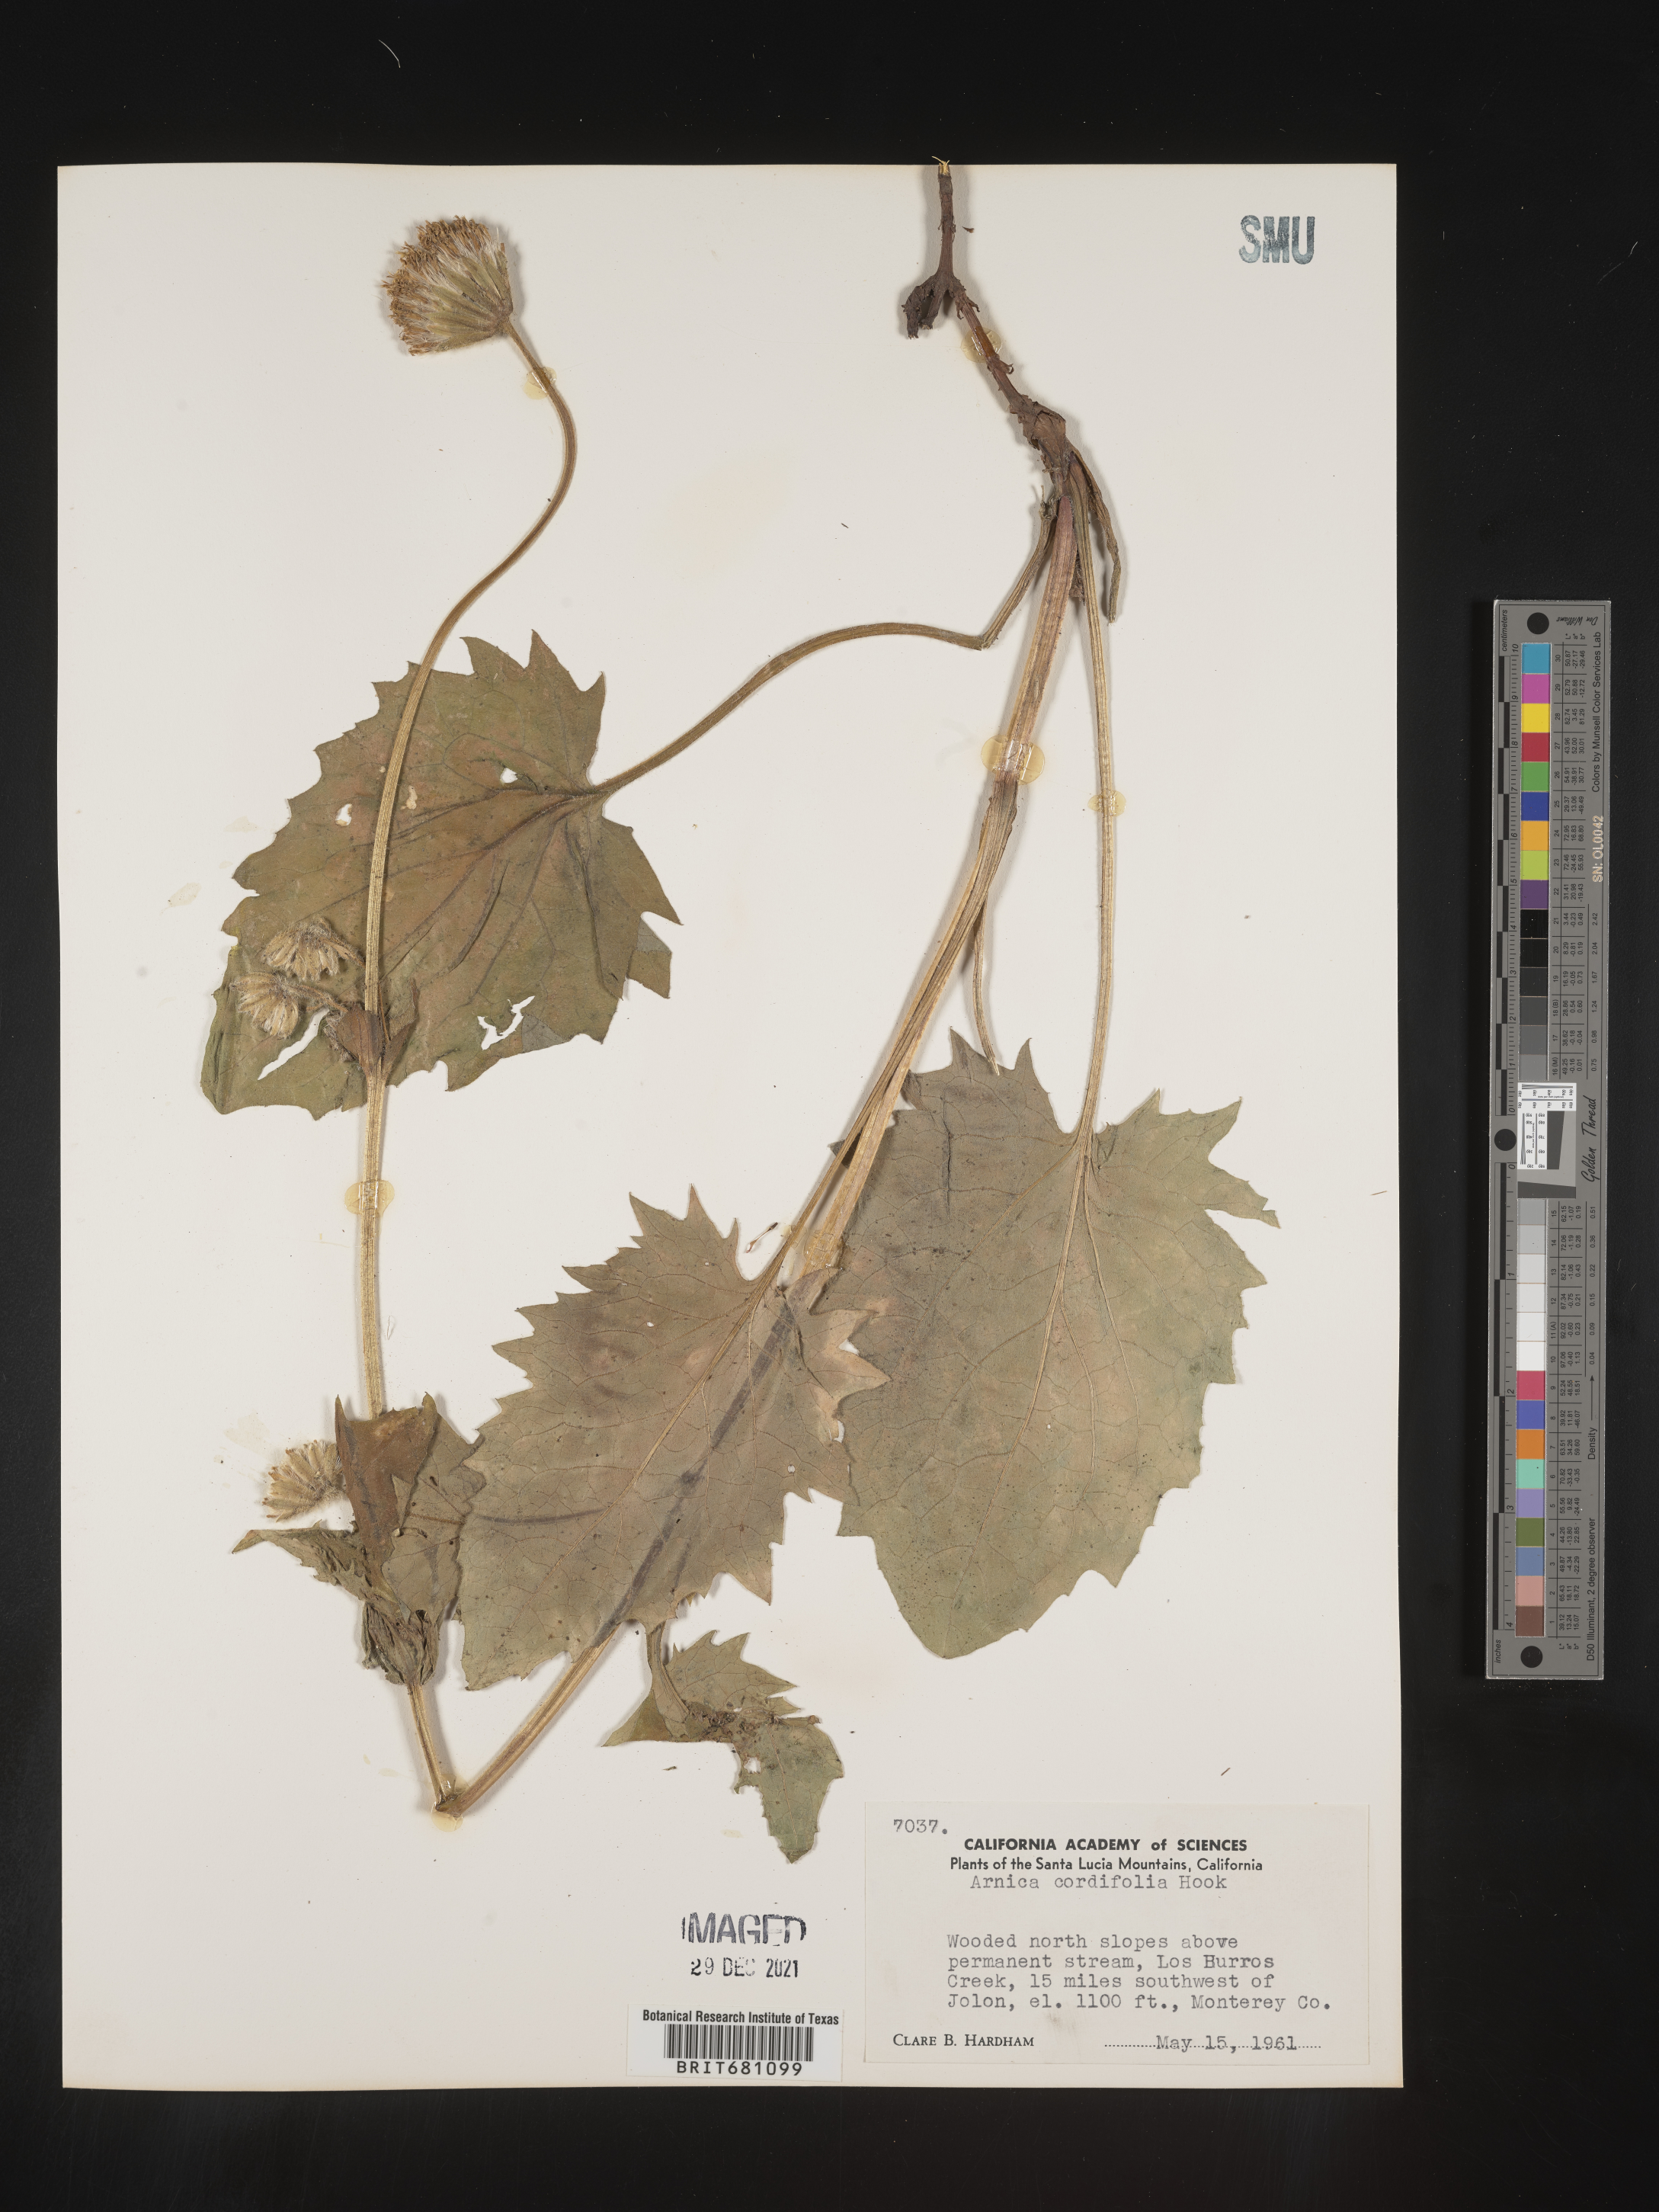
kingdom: Plantae
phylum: Tracheophyta
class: Magnoliopsida
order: Asterales
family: Asteraceae
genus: Arnica
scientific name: Arnica cordifolia
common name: Heart-leaf arnica
